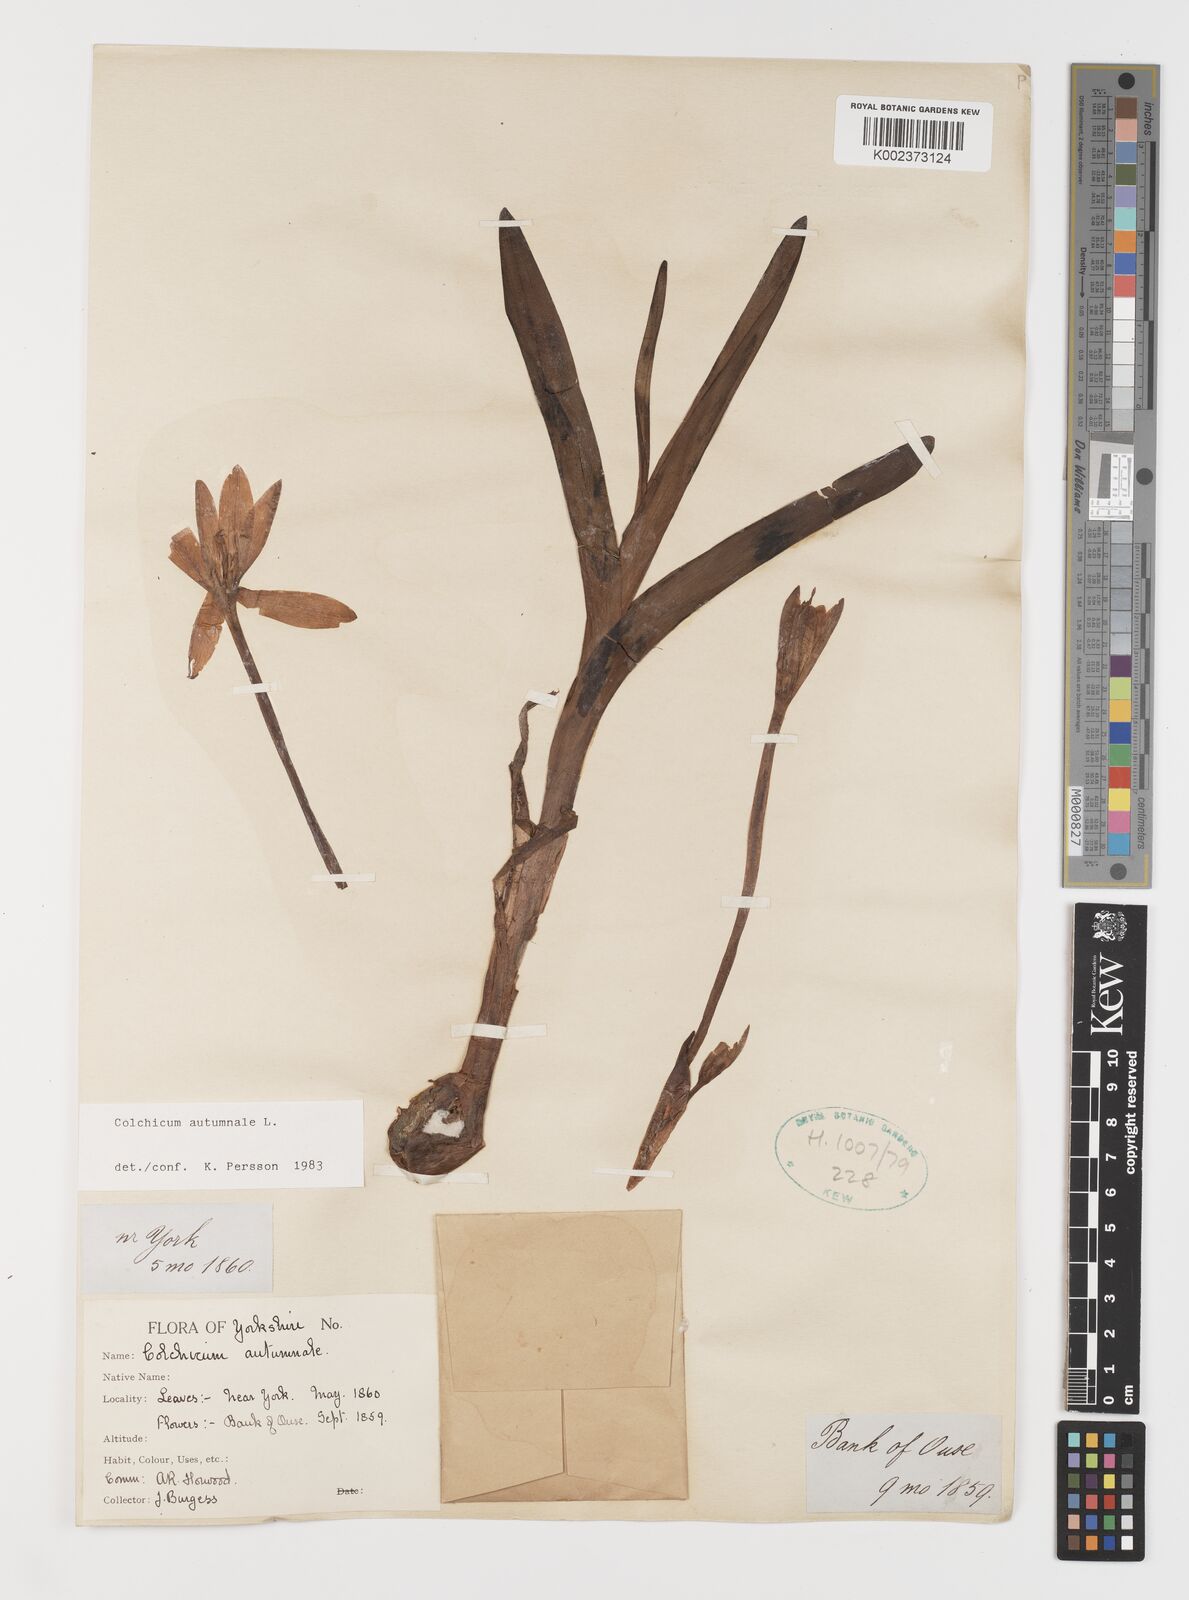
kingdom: Plantae
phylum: Tracheophyta
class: Liliopsida
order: Liliales
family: Colchicaceae
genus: Colchicum
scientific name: Colchicum autumnale
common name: Autumn crocus
